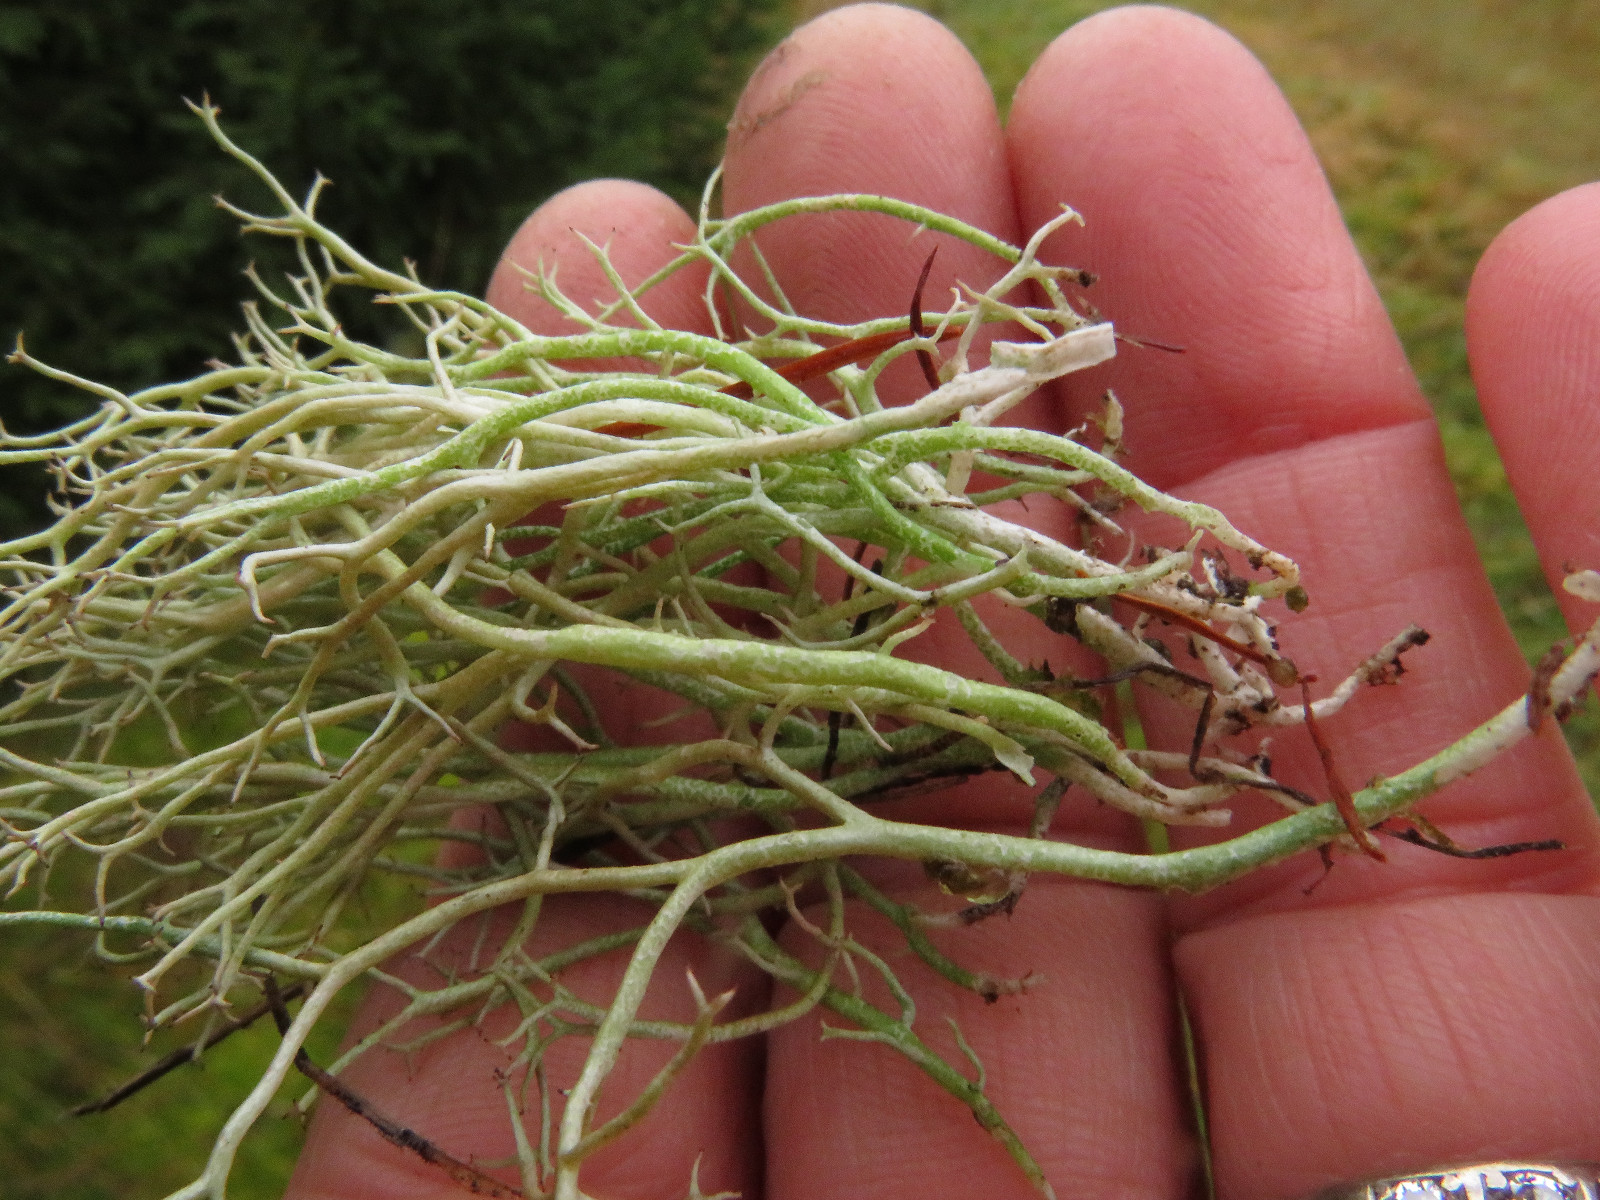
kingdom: Fungi
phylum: Ascomycota
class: Lecanoromycetes
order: Lecanorales
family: Cladoniaceae
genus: Cladonia
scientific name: Cladonia furcata
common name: kløftet bægerlav
